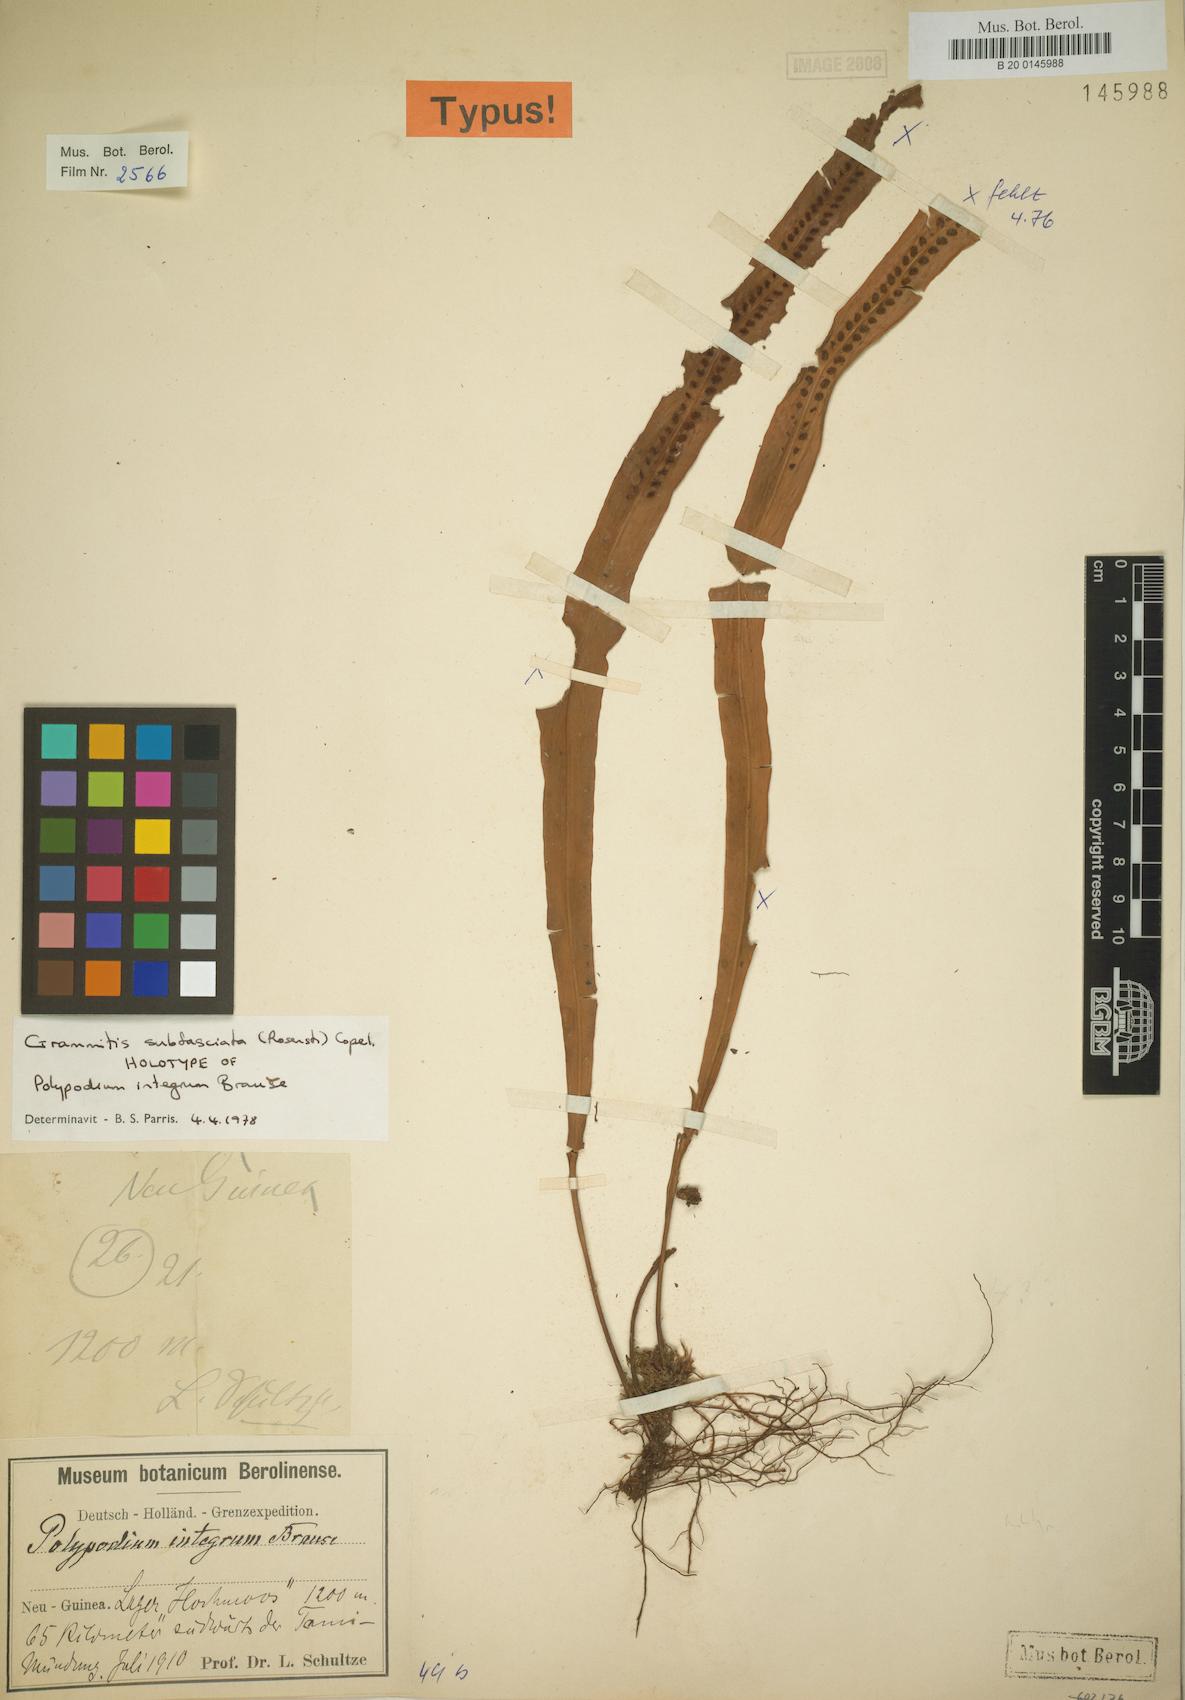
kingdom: Plantae
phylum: Tracheophyta
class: Polypodiopsida
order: Polypodiales
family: Polypodiaceae
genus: Oreogrammitis
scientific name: Oreogrammitis subfasciata
